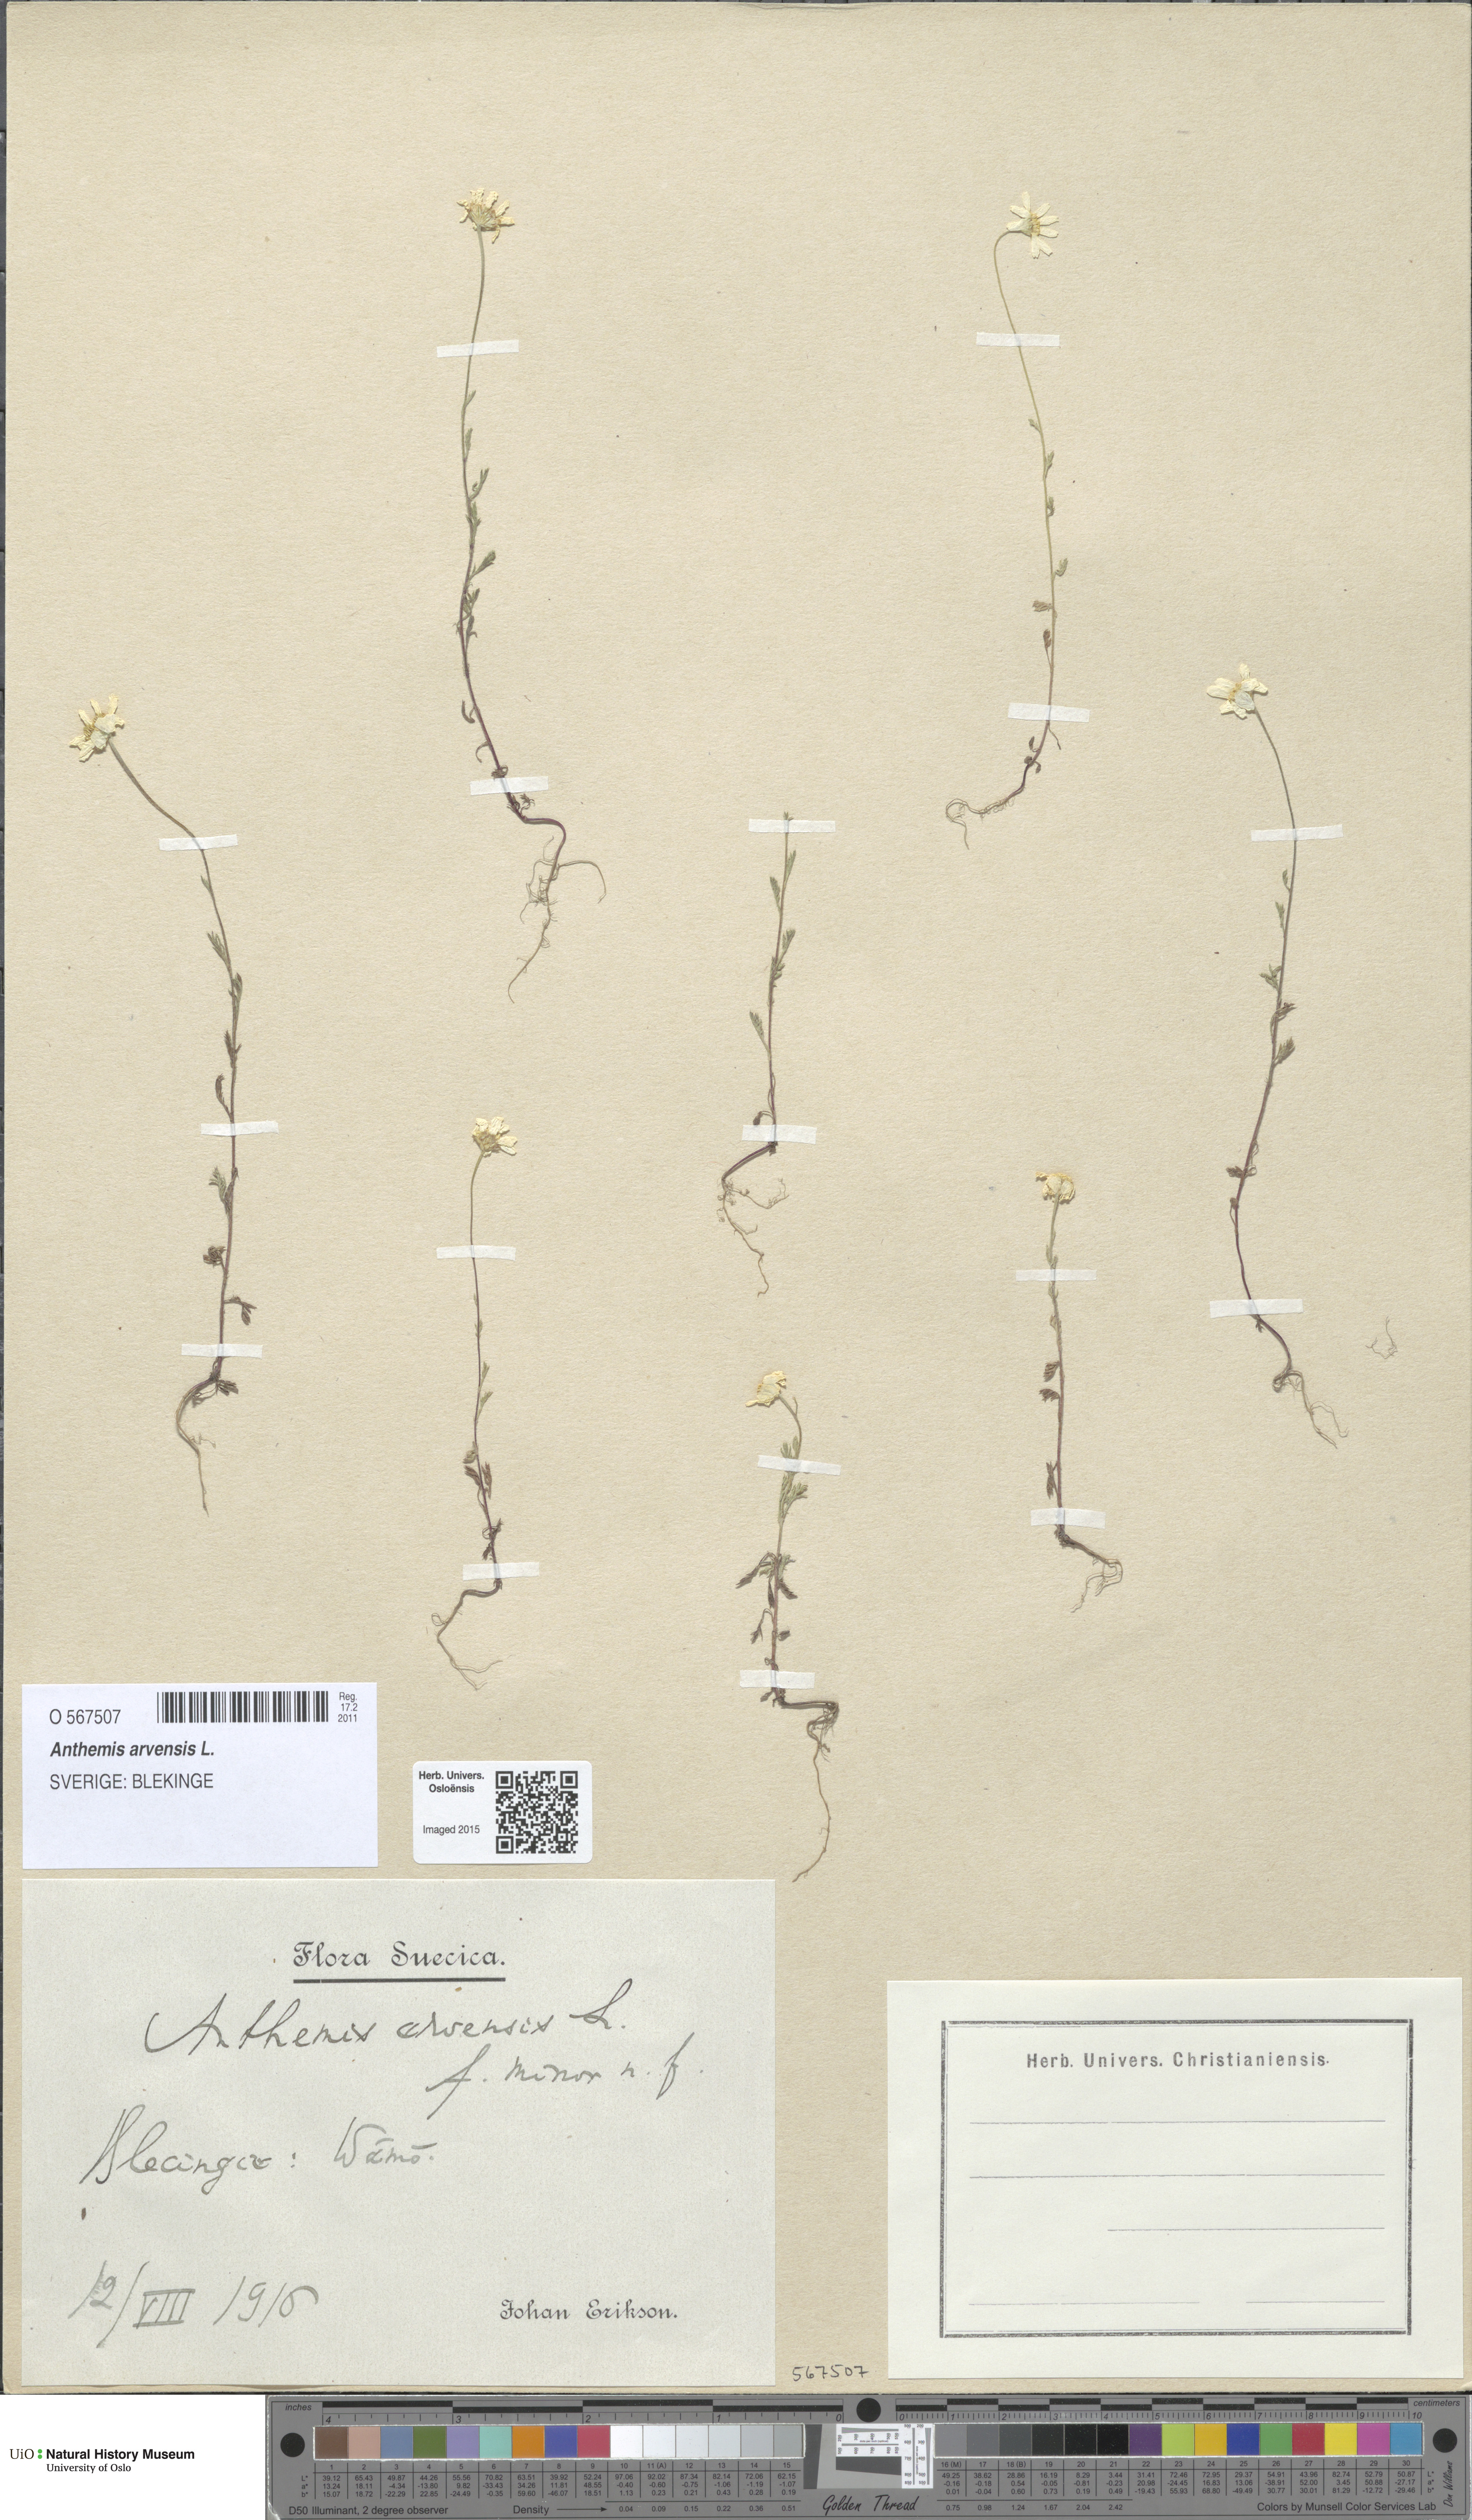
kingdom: Plantae
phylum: Tracheophyta
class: Magnoliopsida
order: Asterales
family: Asteraceae
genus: Anthemis
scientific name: Anthemis arvensis
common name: Corn chamomile
